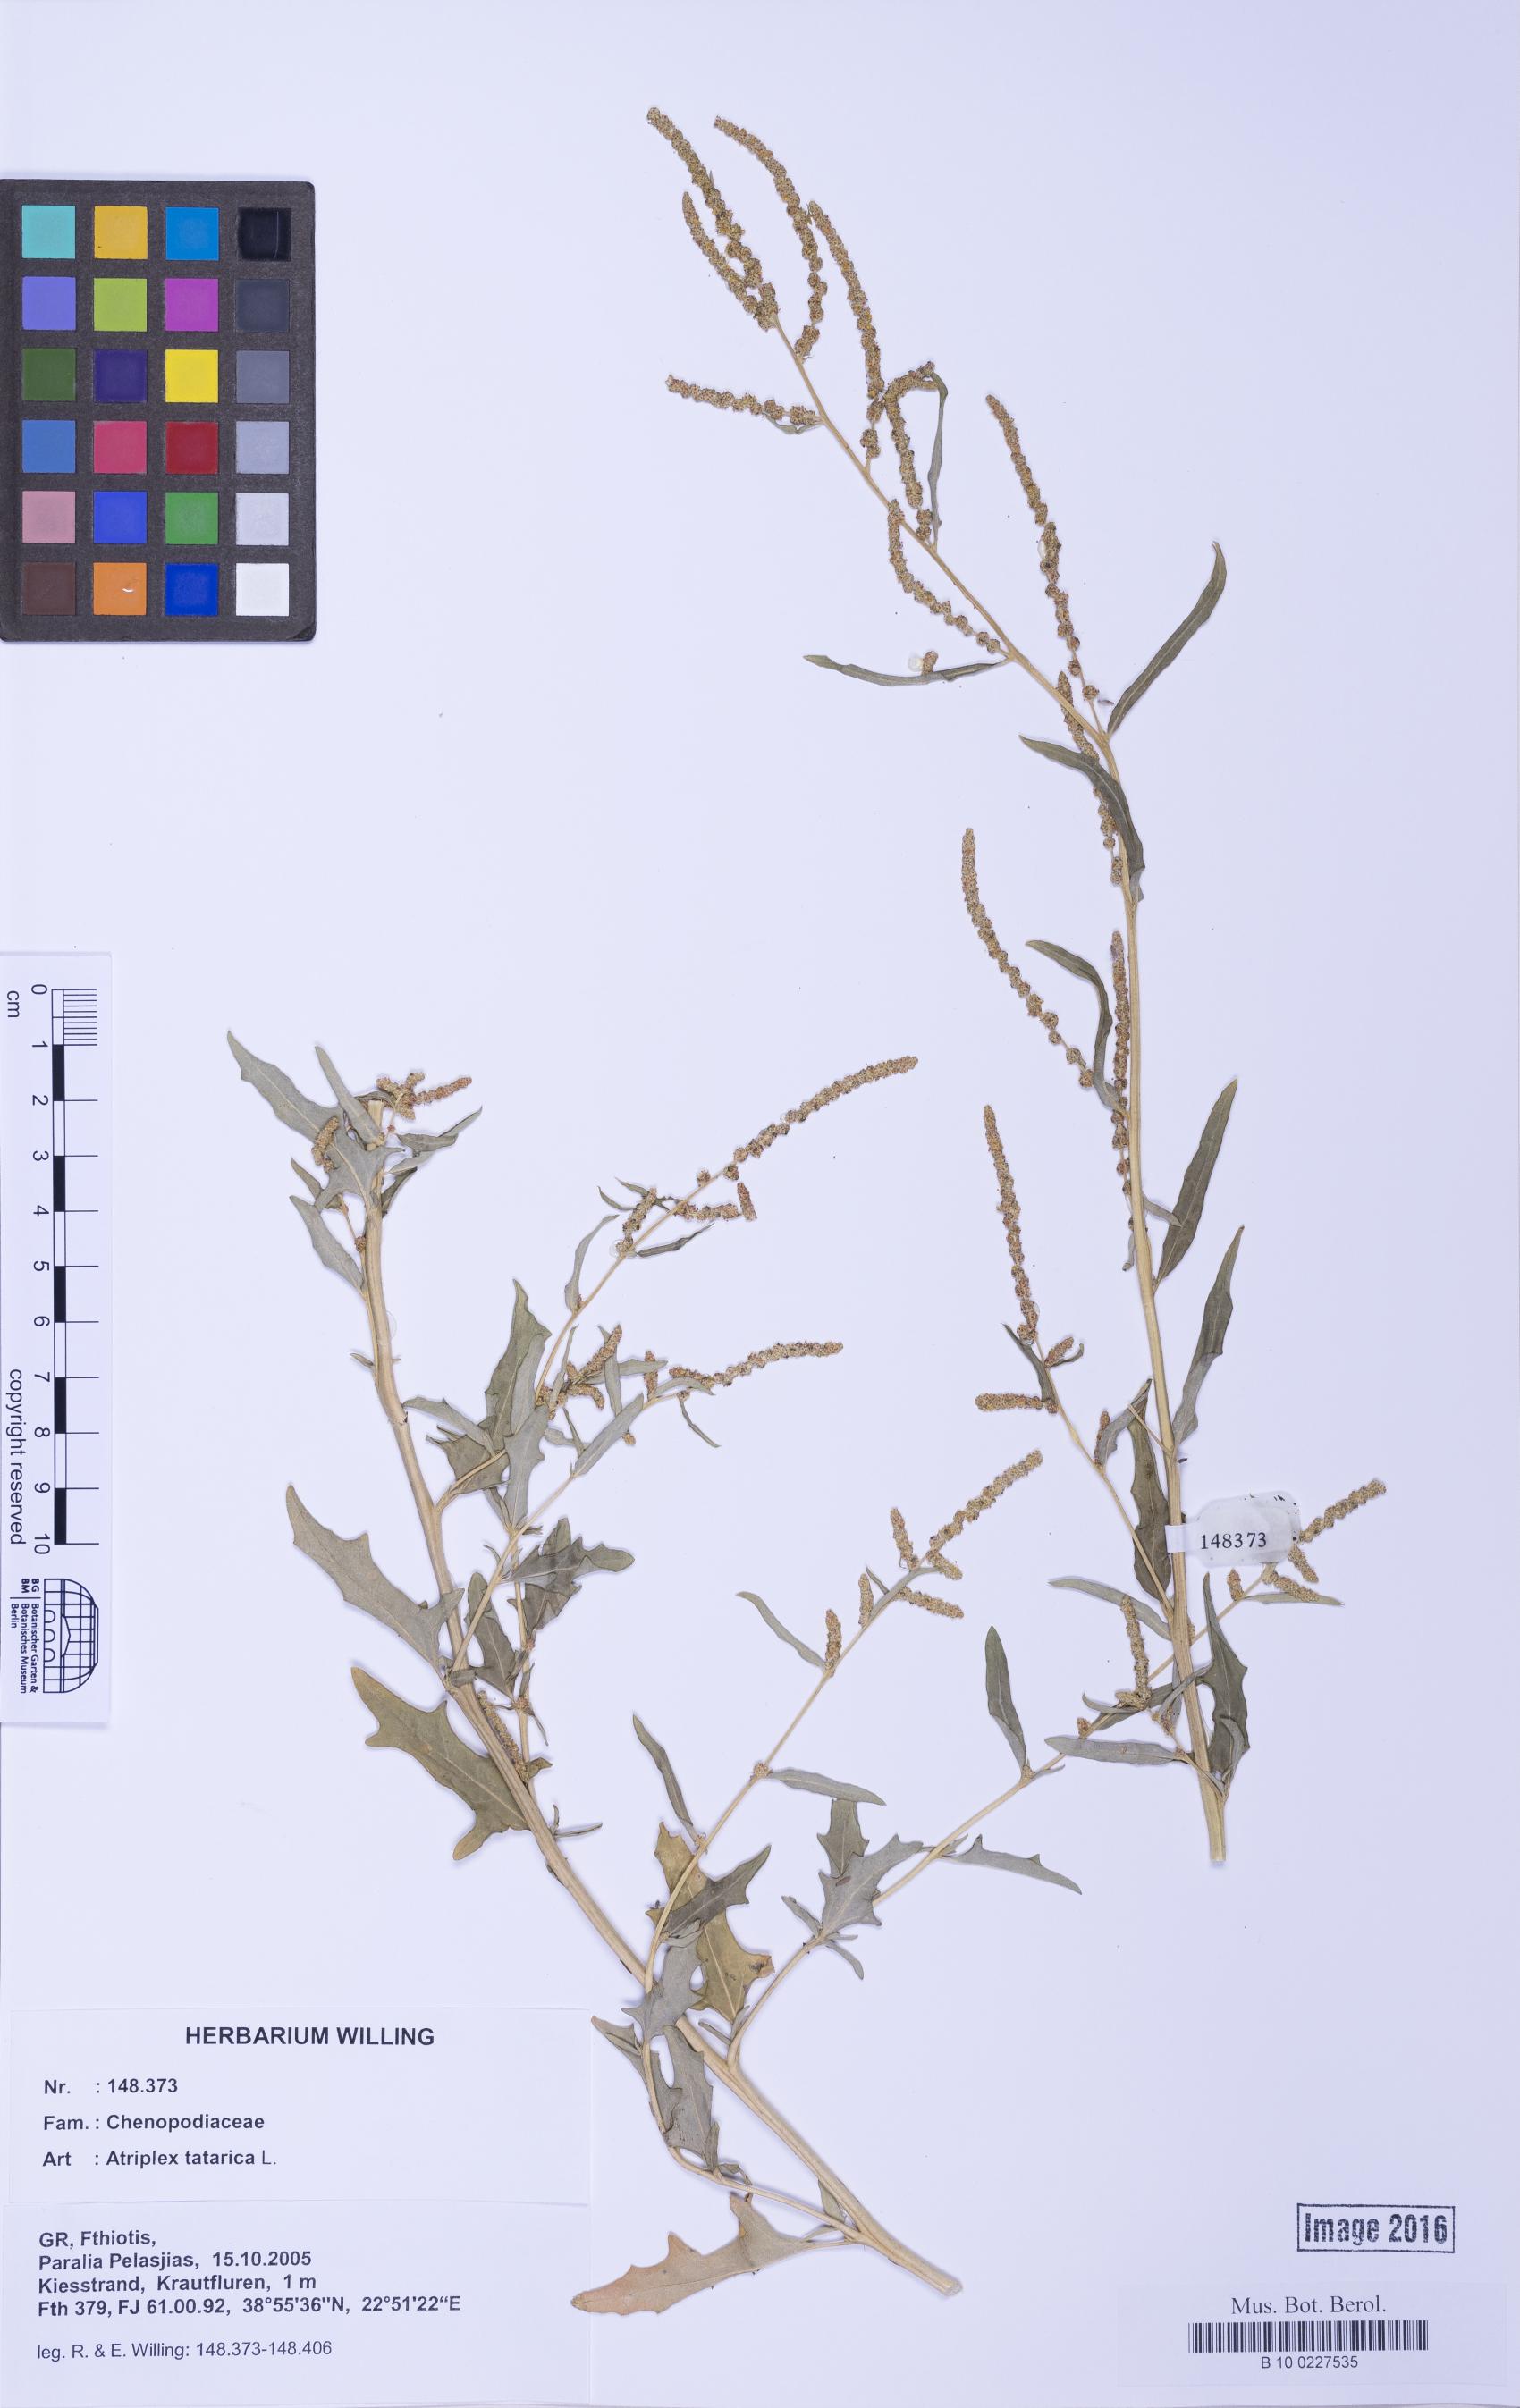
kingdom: Plantae
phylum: Tracheophyta
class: Magnoliopsida
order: Caryophyllales
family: Amaranthaceae
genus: Atriplex
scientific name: Atriplex tatarica
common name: Tatarian orache
